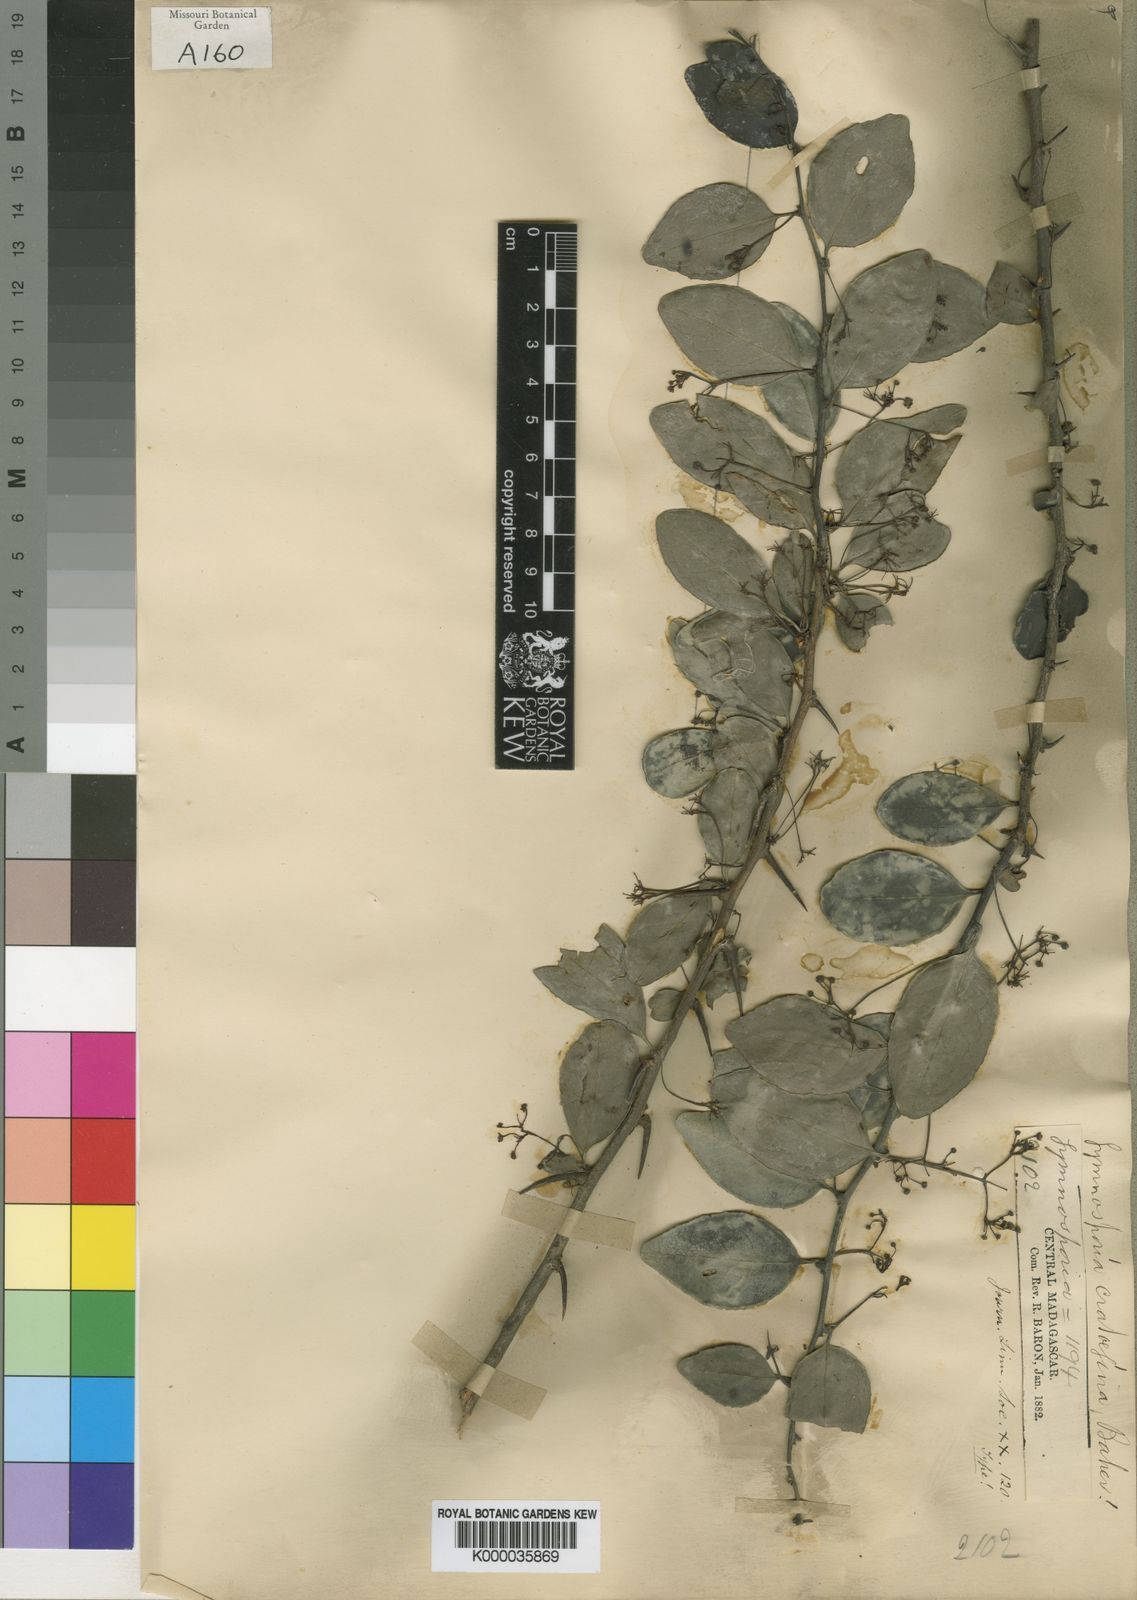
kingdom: Plantae
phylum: Tracheophyta
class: Magnoliopsida
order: Celastrales
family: Celastraceae
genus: Gymnosporia
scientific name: Gymnosporia divaricata
